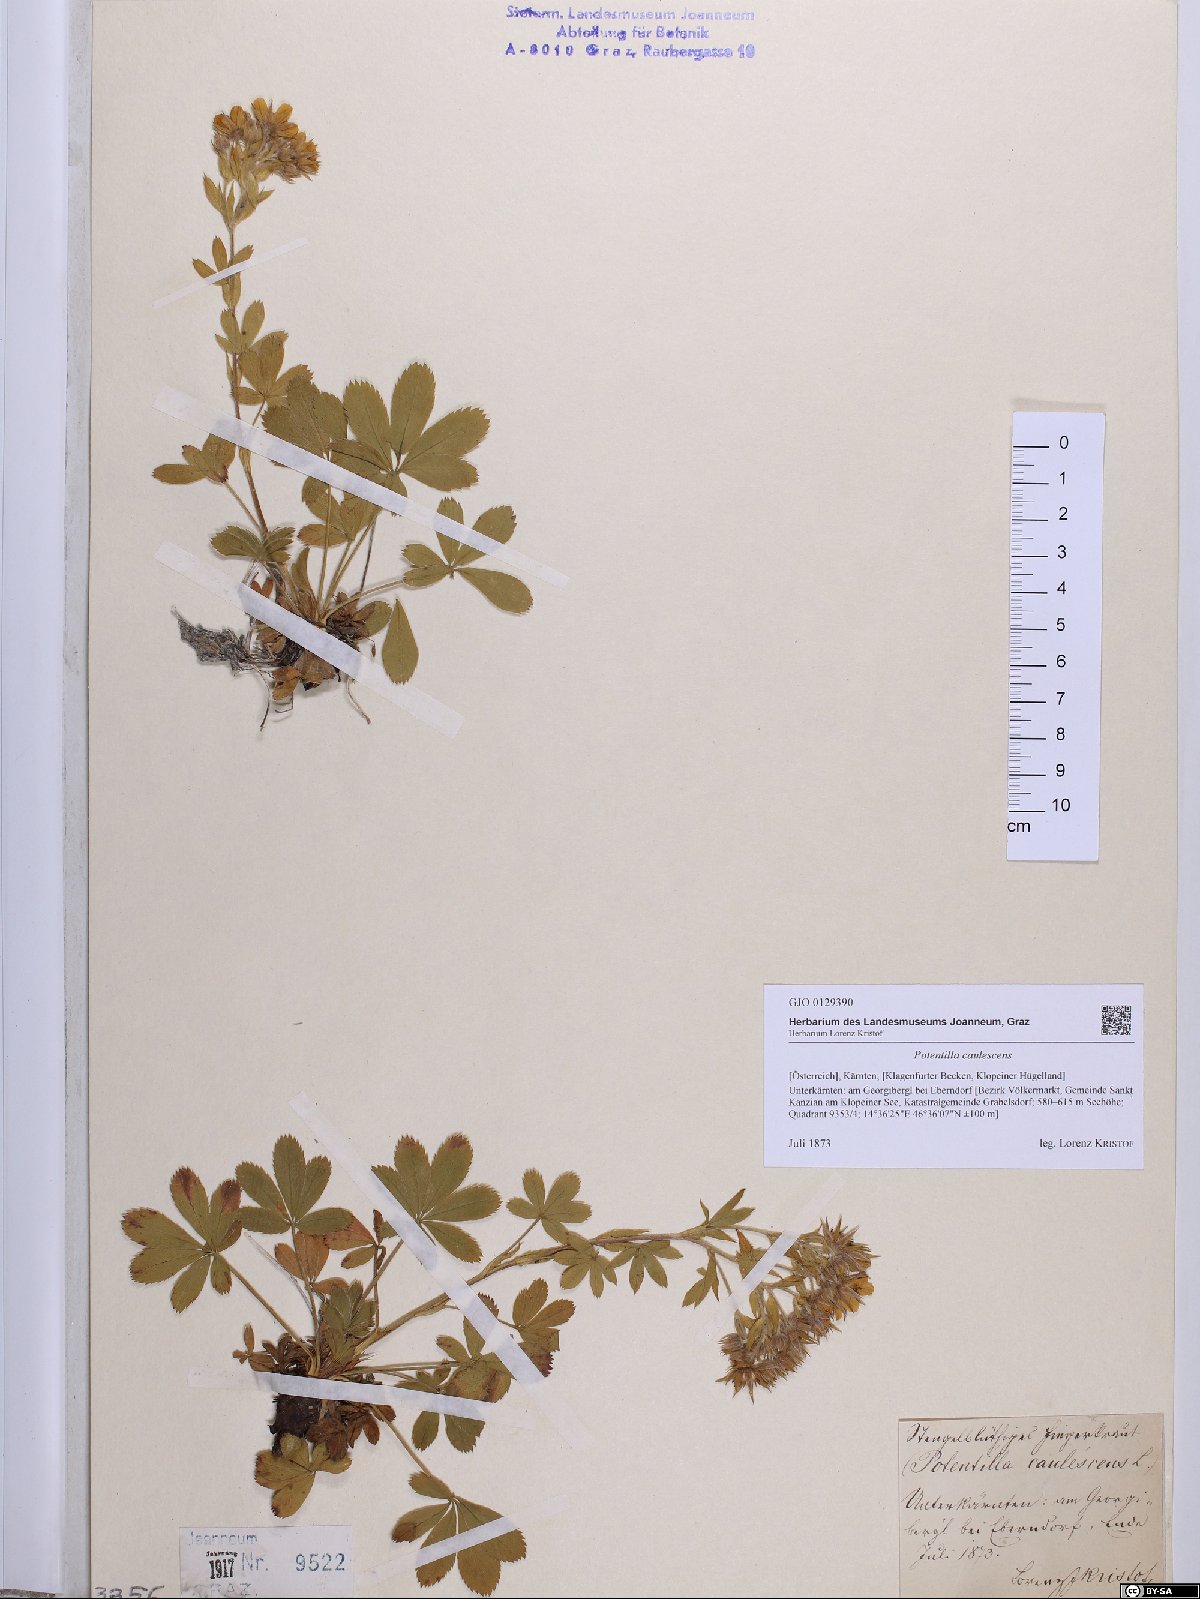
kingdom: Plantae
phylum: Tracheophyta
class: Magnoliopsida
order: Rosales
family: Rosaceae
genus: Potentilla
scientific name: Potentilla caulescens
